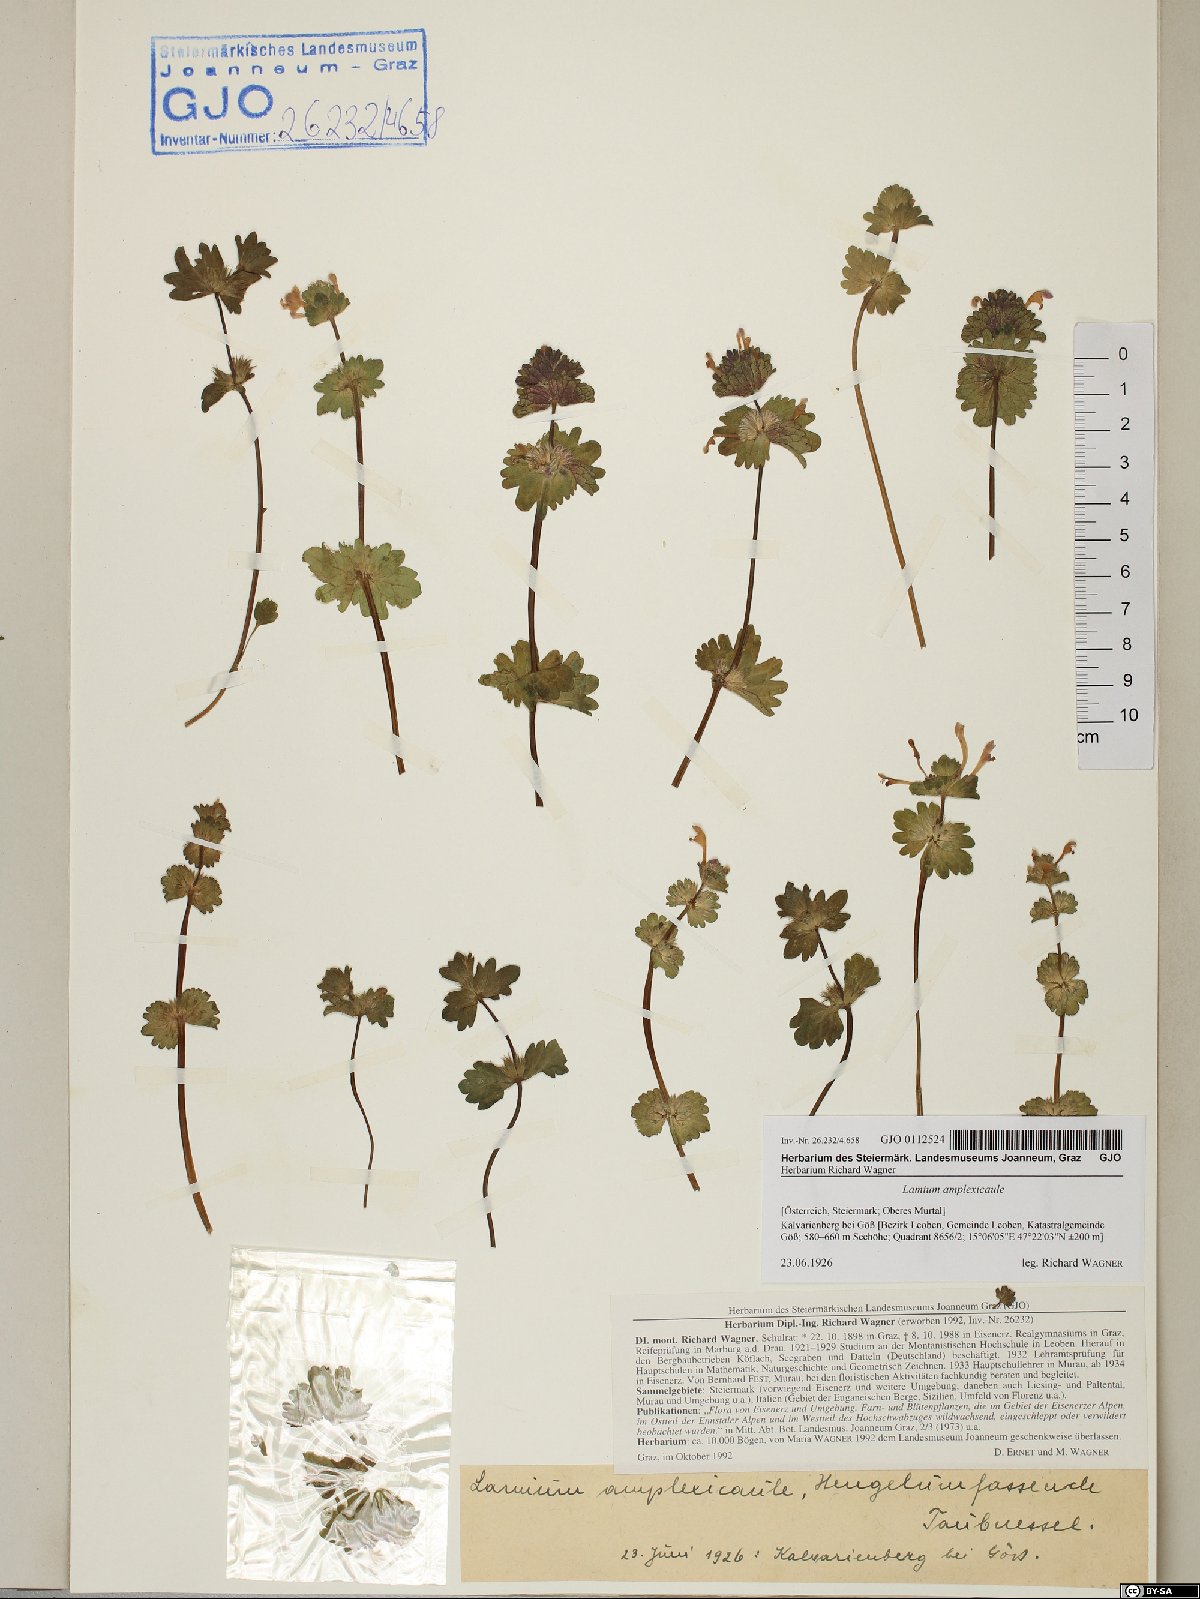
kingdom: Plantae
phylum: Tracheophyta
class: Magnoliopsida
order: Lamiales
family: Lamiaceae
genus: Lamium
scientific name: Lamium amplexicaule
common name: Henbit dead-nettle
